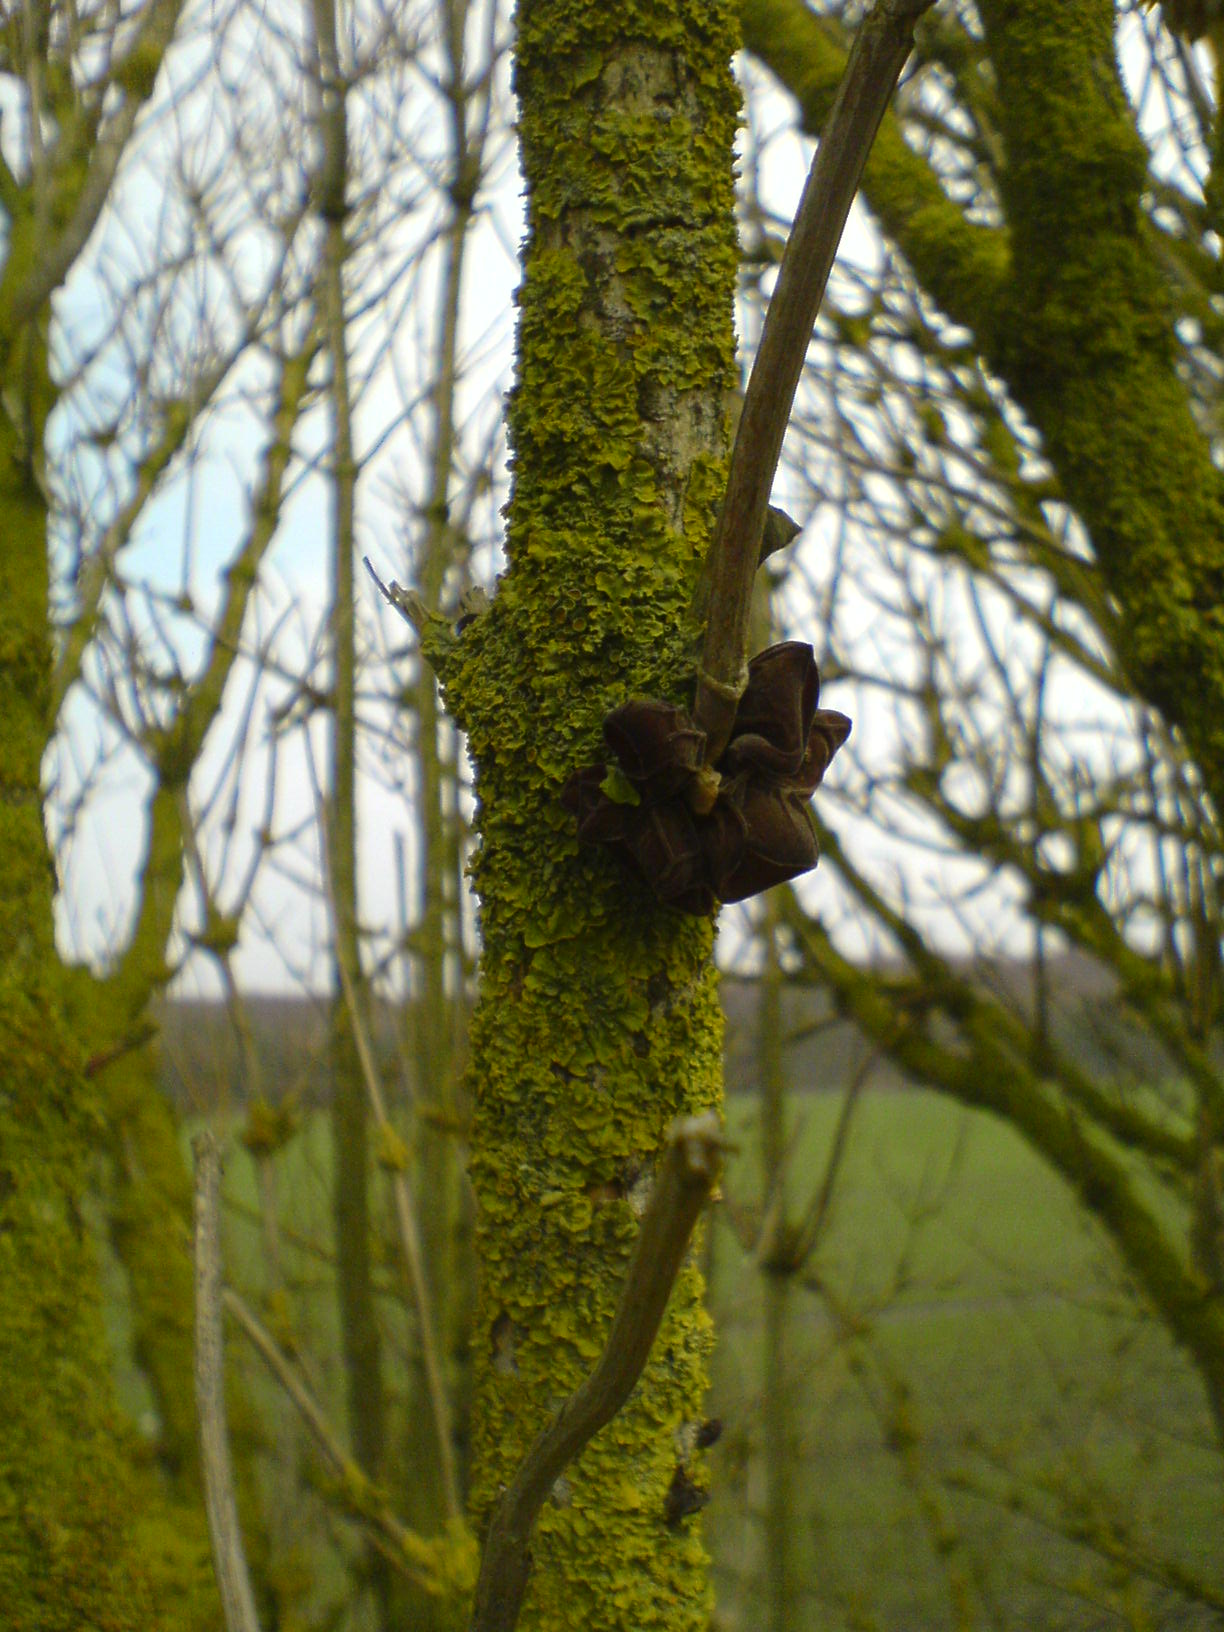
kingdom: Fungi
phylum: Basidiomycota
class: Agaricomycetes
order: Auriculariales
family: Auriculariaceae
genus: Auricularia
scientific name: Auricularia auricula-judae
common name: almindelig judasøre
